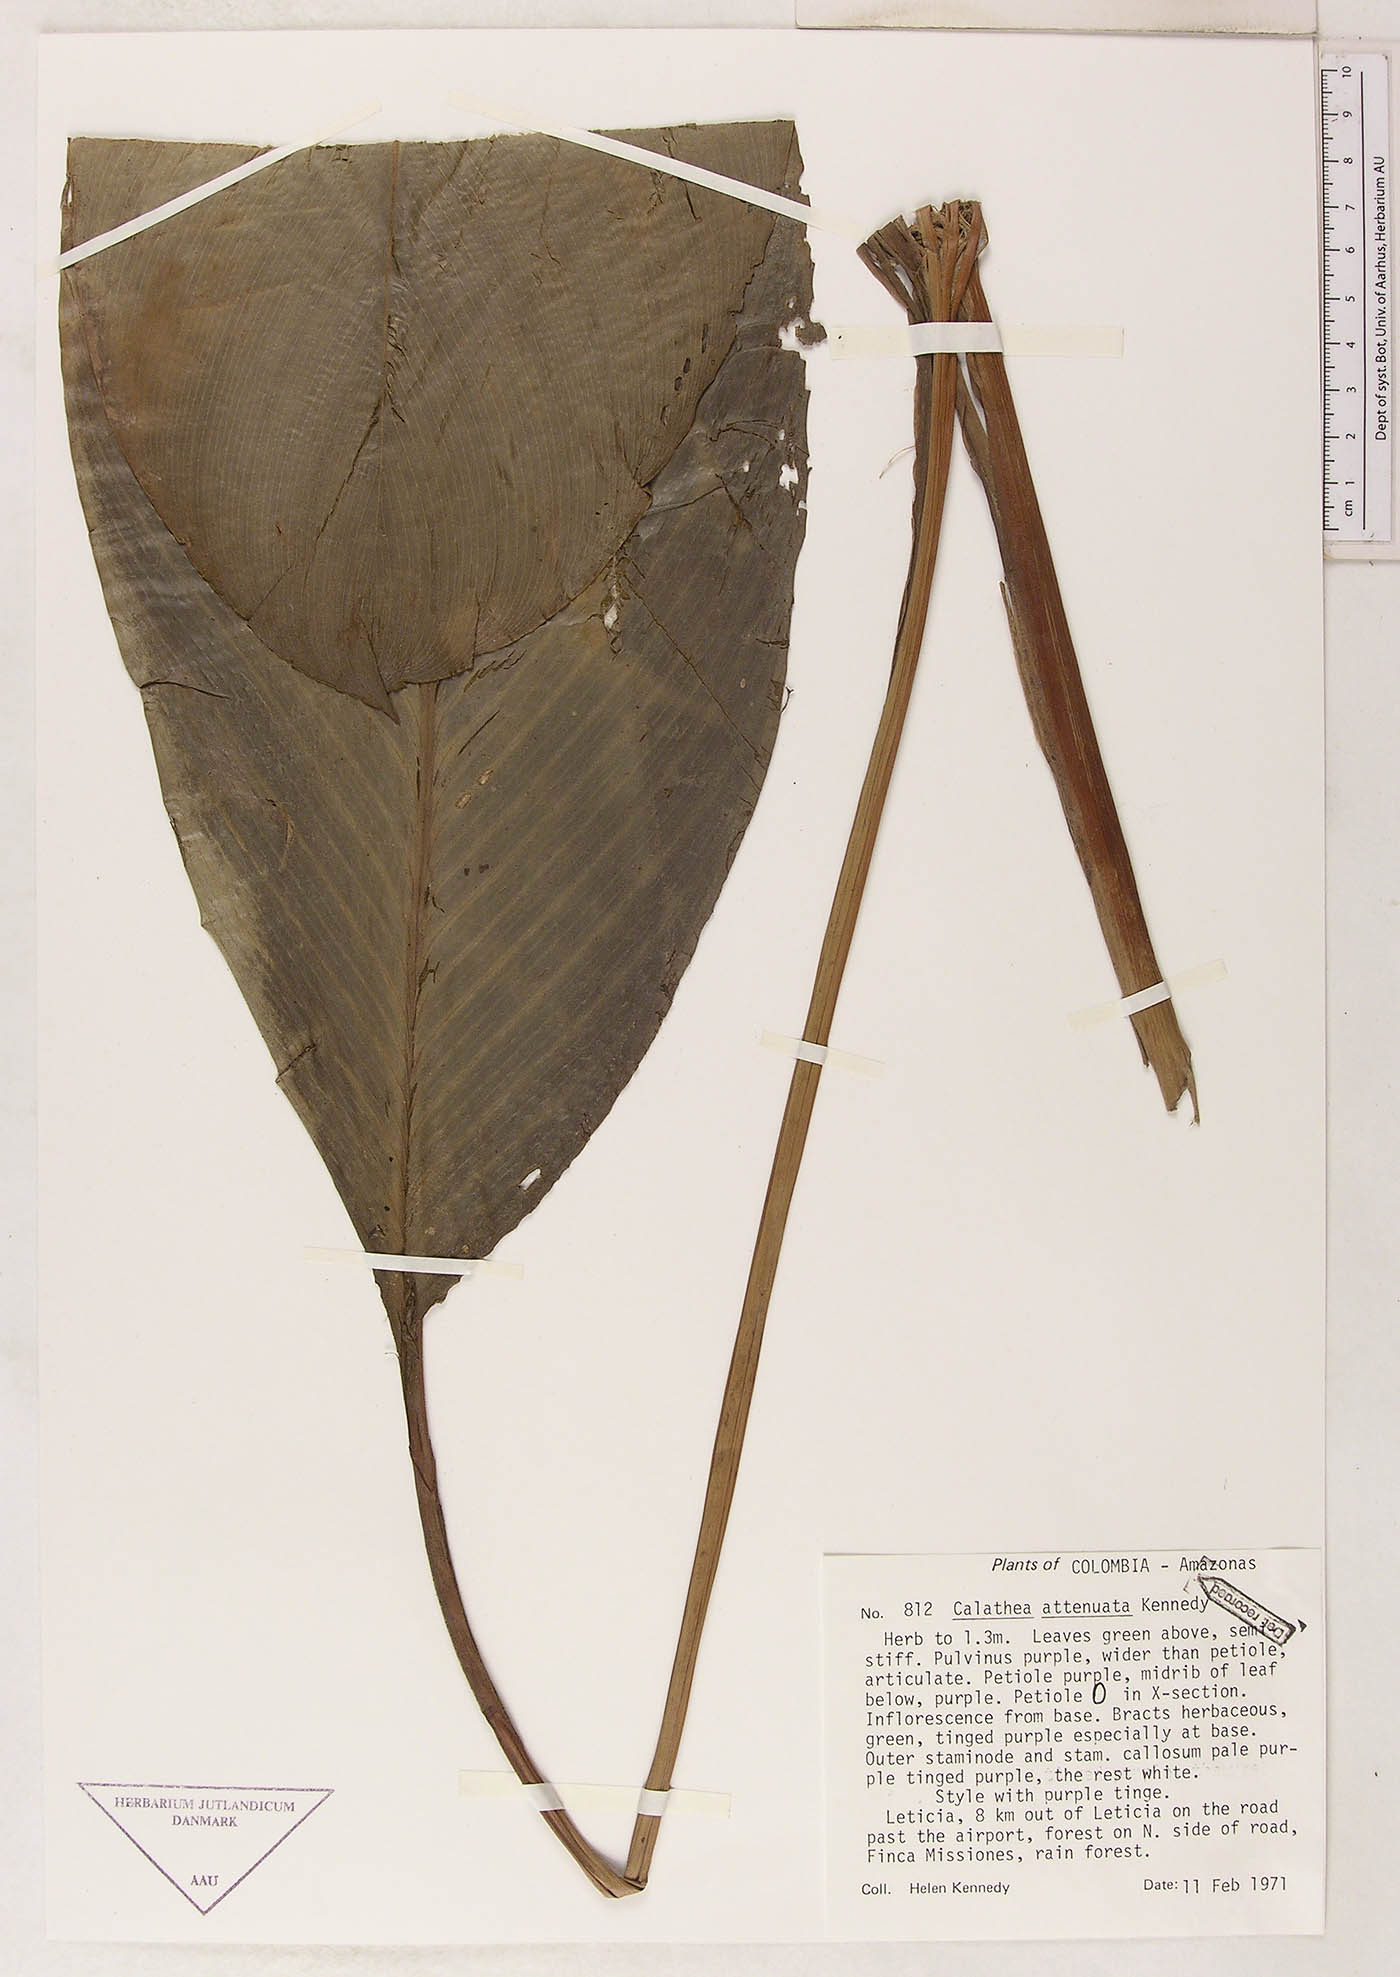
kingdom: Plantae
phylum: Tracheophyta
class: Liliopsida
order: Zingiberales
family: Marantaceae
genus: Goeppertia
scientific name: Goeppertia attenuata
